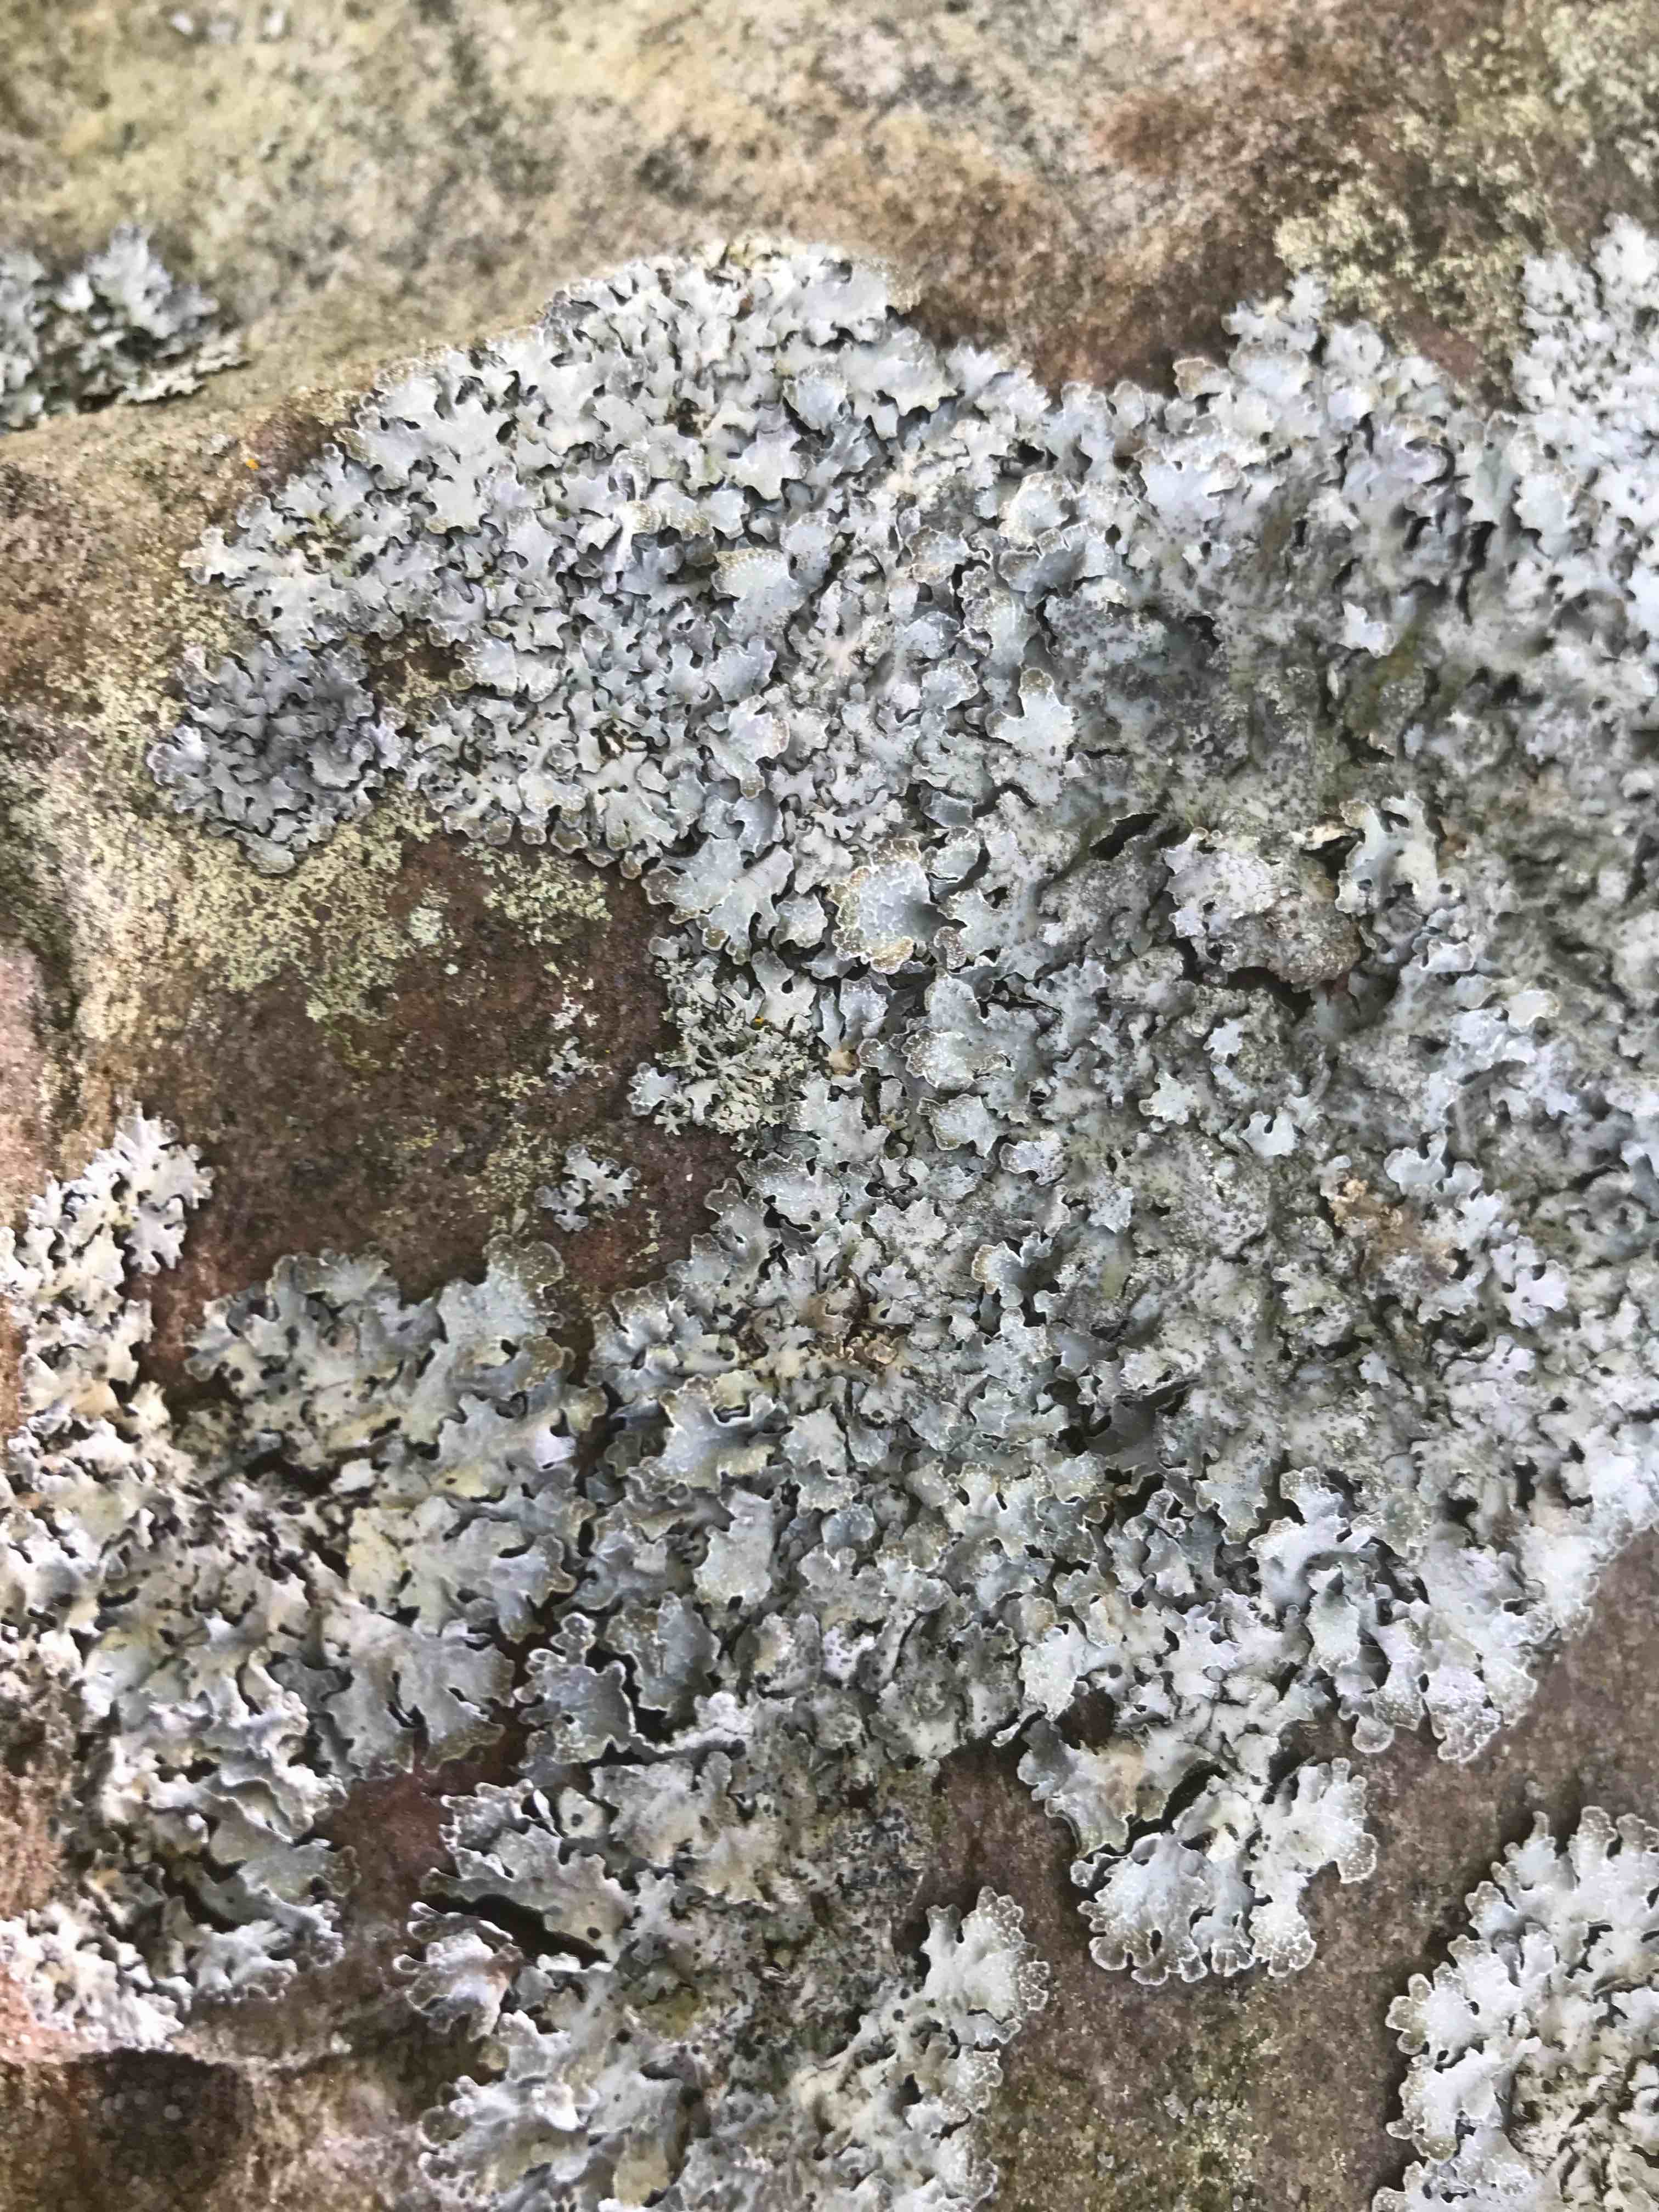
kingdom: Fungi
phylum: Ascomycota
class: Lecanoromycetes
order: Lecanorales
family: Parmeliaceae
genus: Parmelia
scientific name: Parmelia saxatilis
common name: farve-skållav
